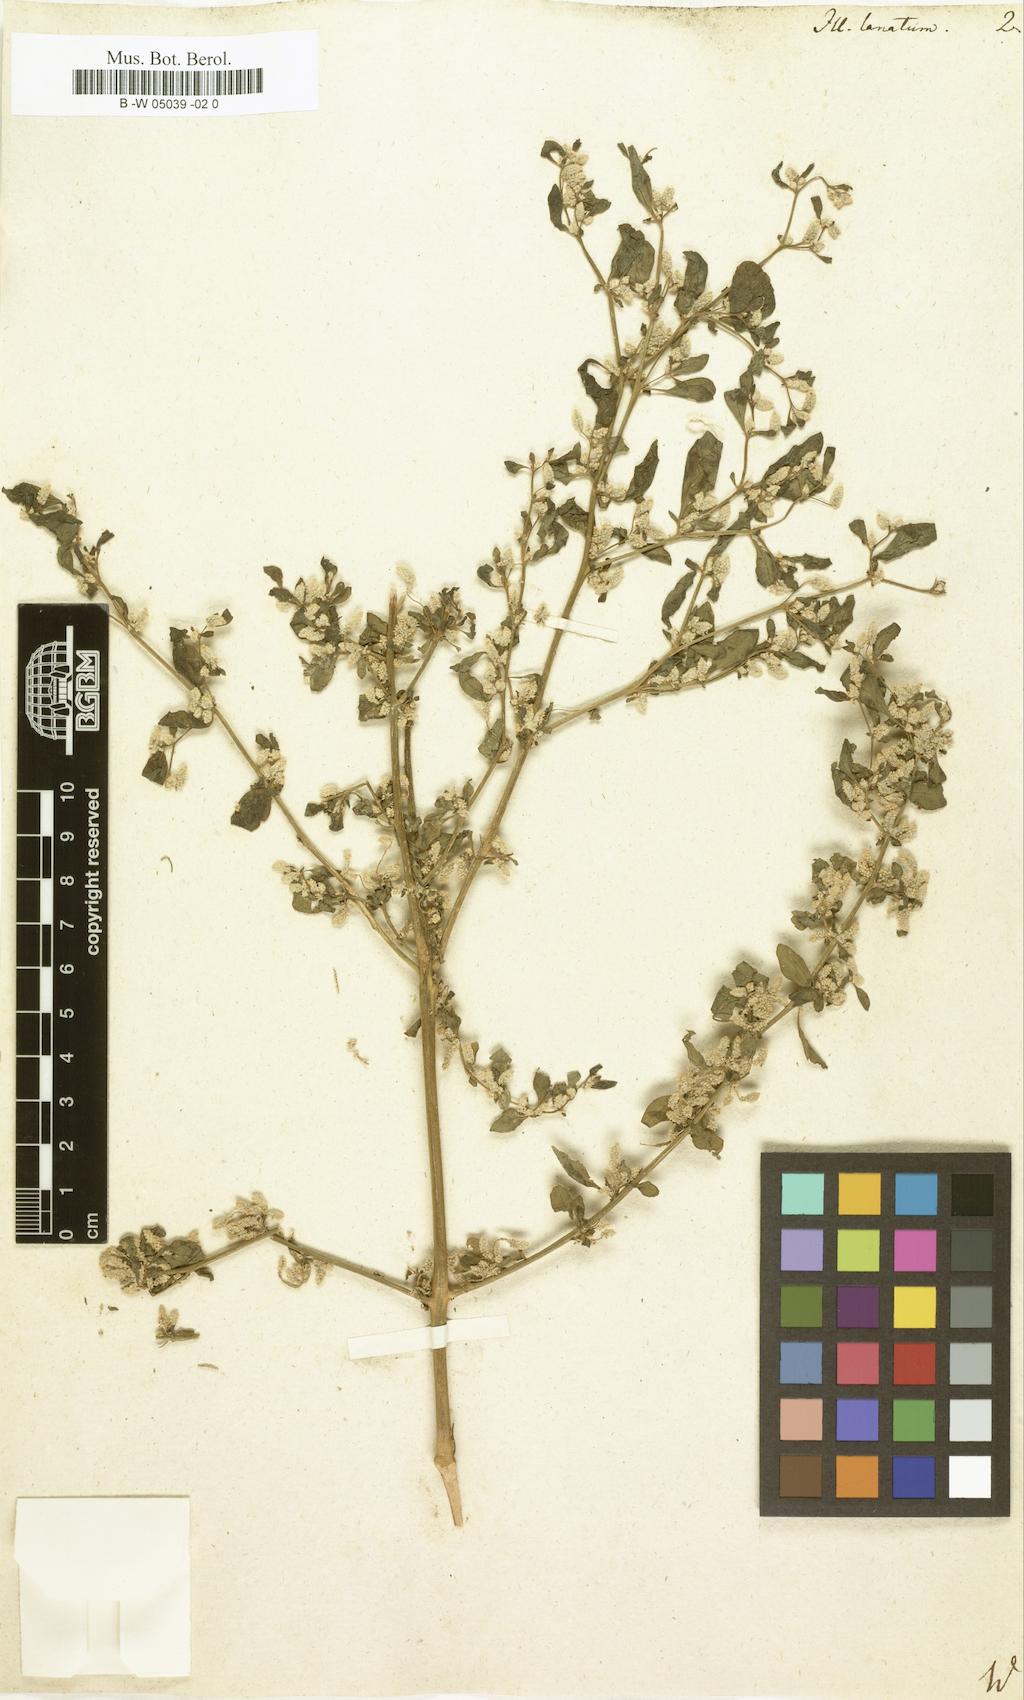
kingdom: Plantae
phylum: Tracheophyta
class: Magnoliopsida
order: Caryophyllales
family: Amaranthaceae
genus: Ouret
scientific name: Ouret lanata
